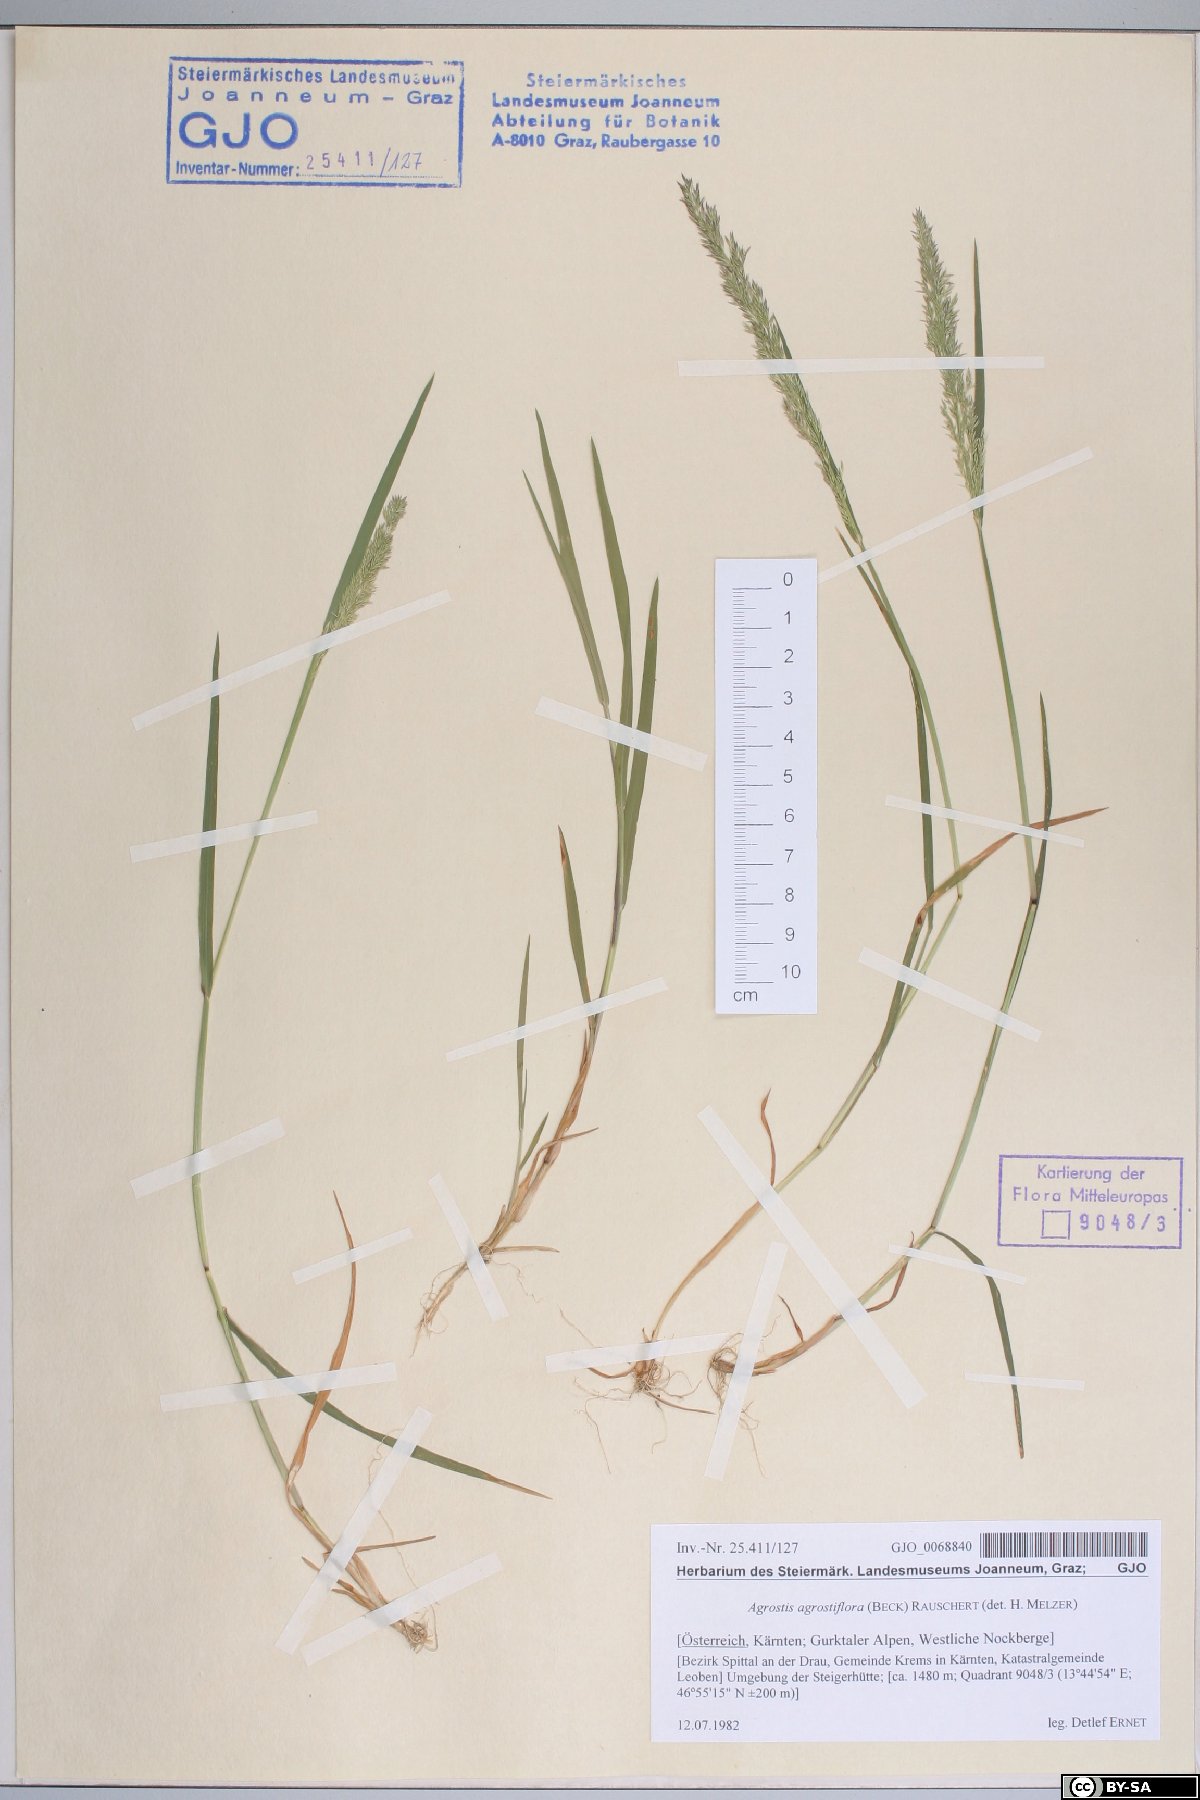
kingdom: Plantae
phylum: Tracheophyta
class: Liliopsida
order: Poales
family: Poaceae
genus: Agrostis
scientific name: Agrostis schraderiana
